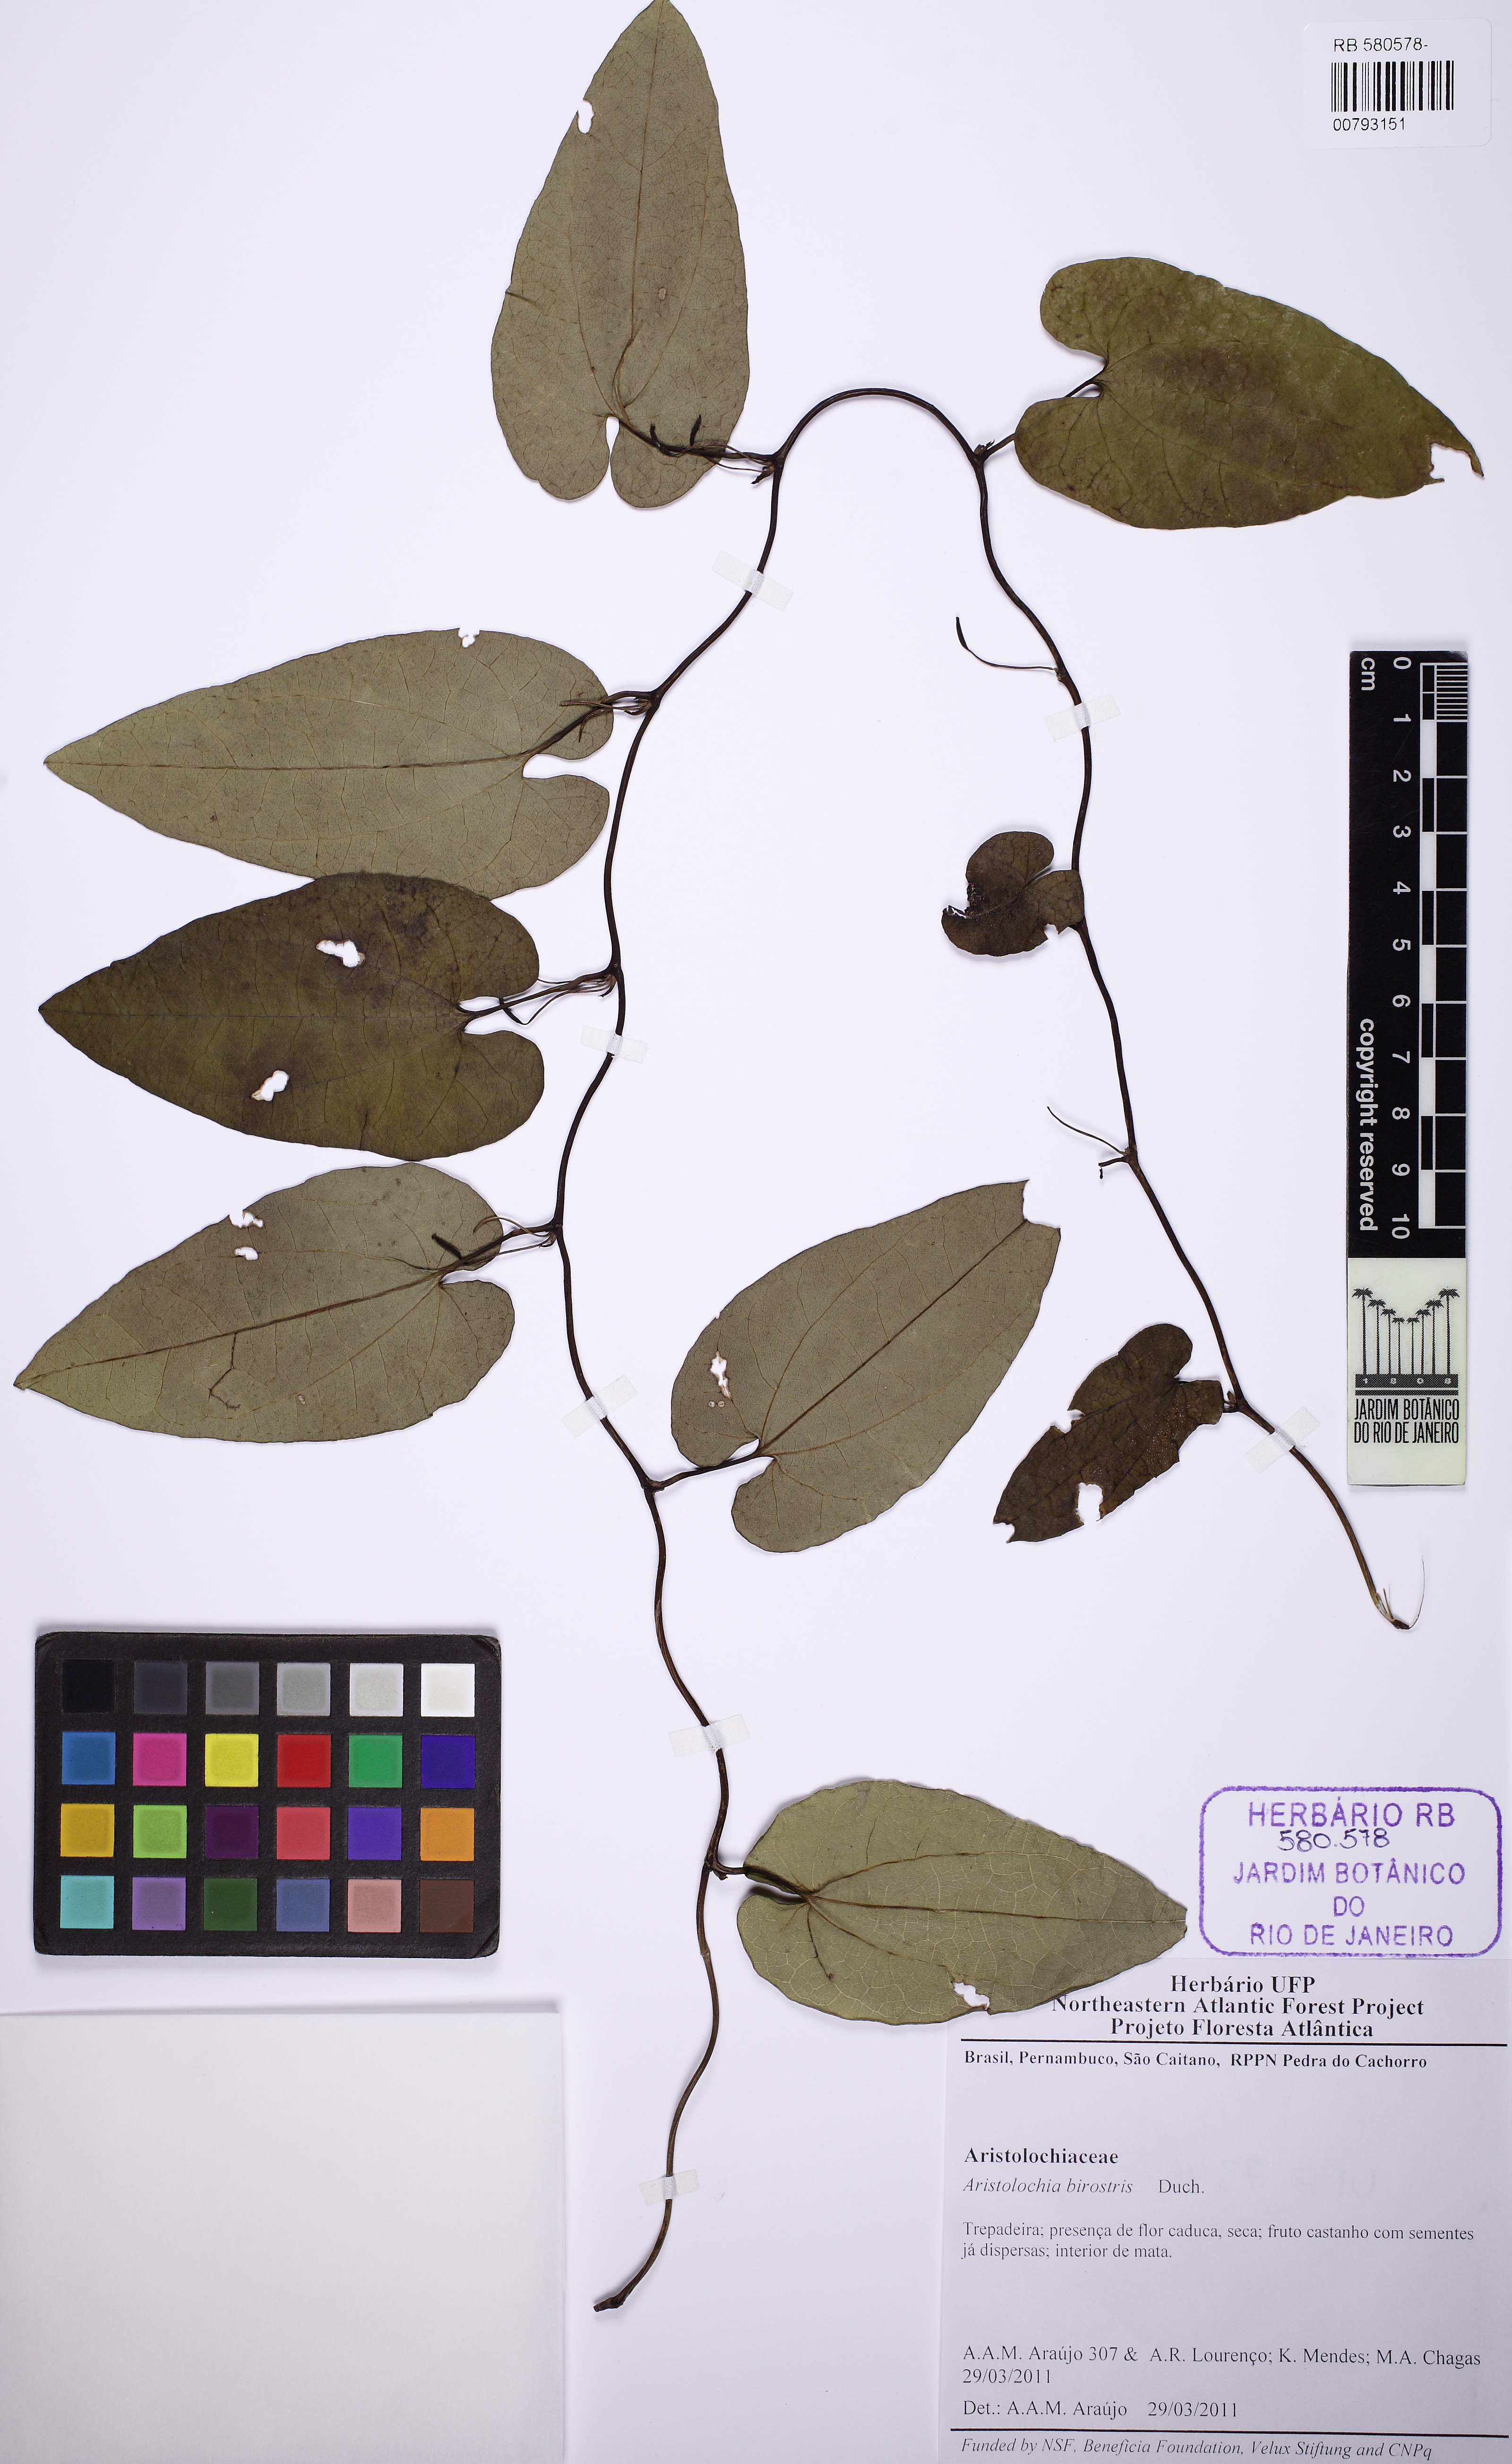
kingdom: Plantae
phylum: Tracheophyta
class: Magnoliopsida
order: Piperales
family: Aristolochiaceae
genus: Aristolochia
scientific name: Aristolochia birostris
